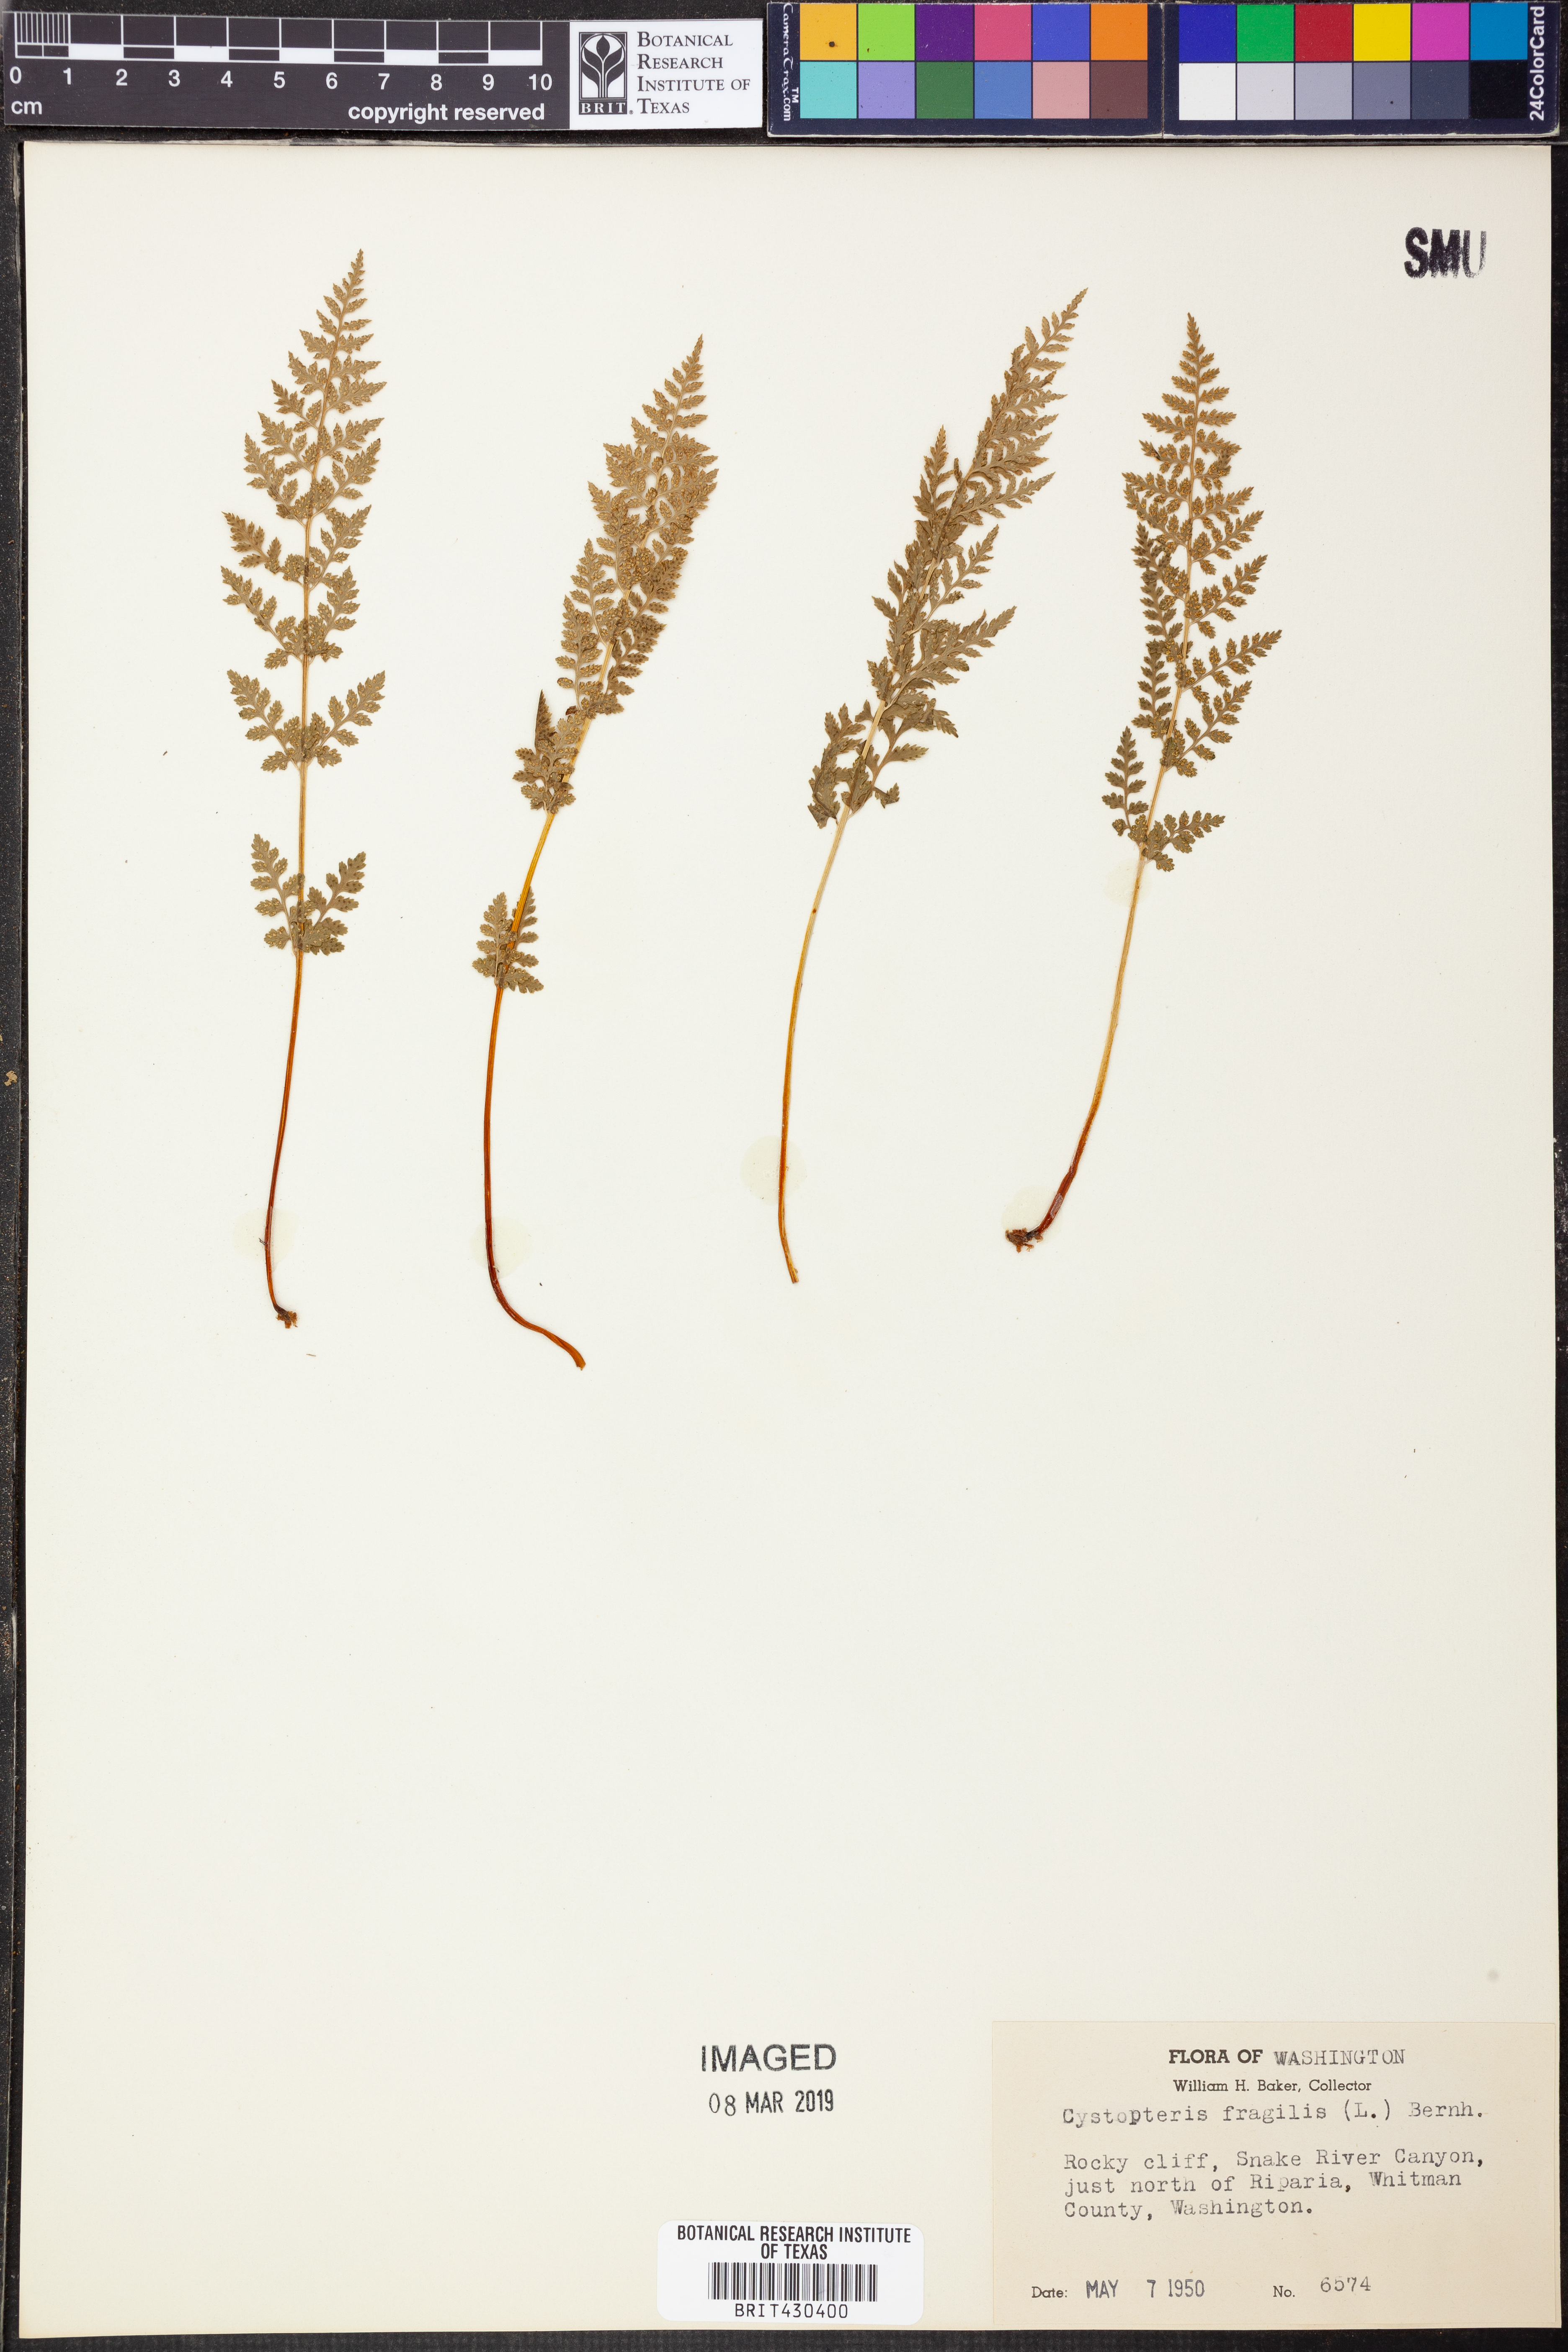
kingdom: Plantae
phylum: Tracheophyta
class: Polypodiopsida
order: Polypodiales
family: Cystopteridaceae
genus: Cystopteris
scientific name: Cystopteris fragilis
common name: Brittle bladder fern
